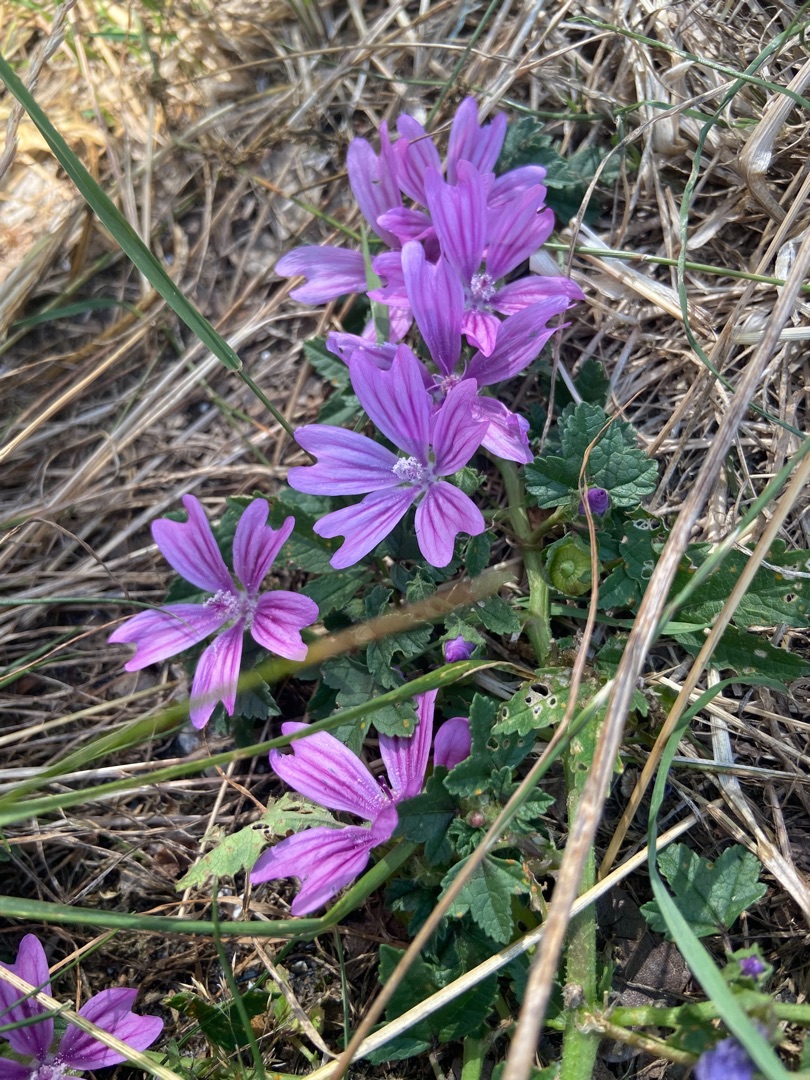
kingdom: Plantae
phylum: Tracheophyta
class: Magnoliopsida
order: Malvales
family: Malvaceae
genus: Malva
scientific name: Malva sylvestris
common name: Almindelig katost
